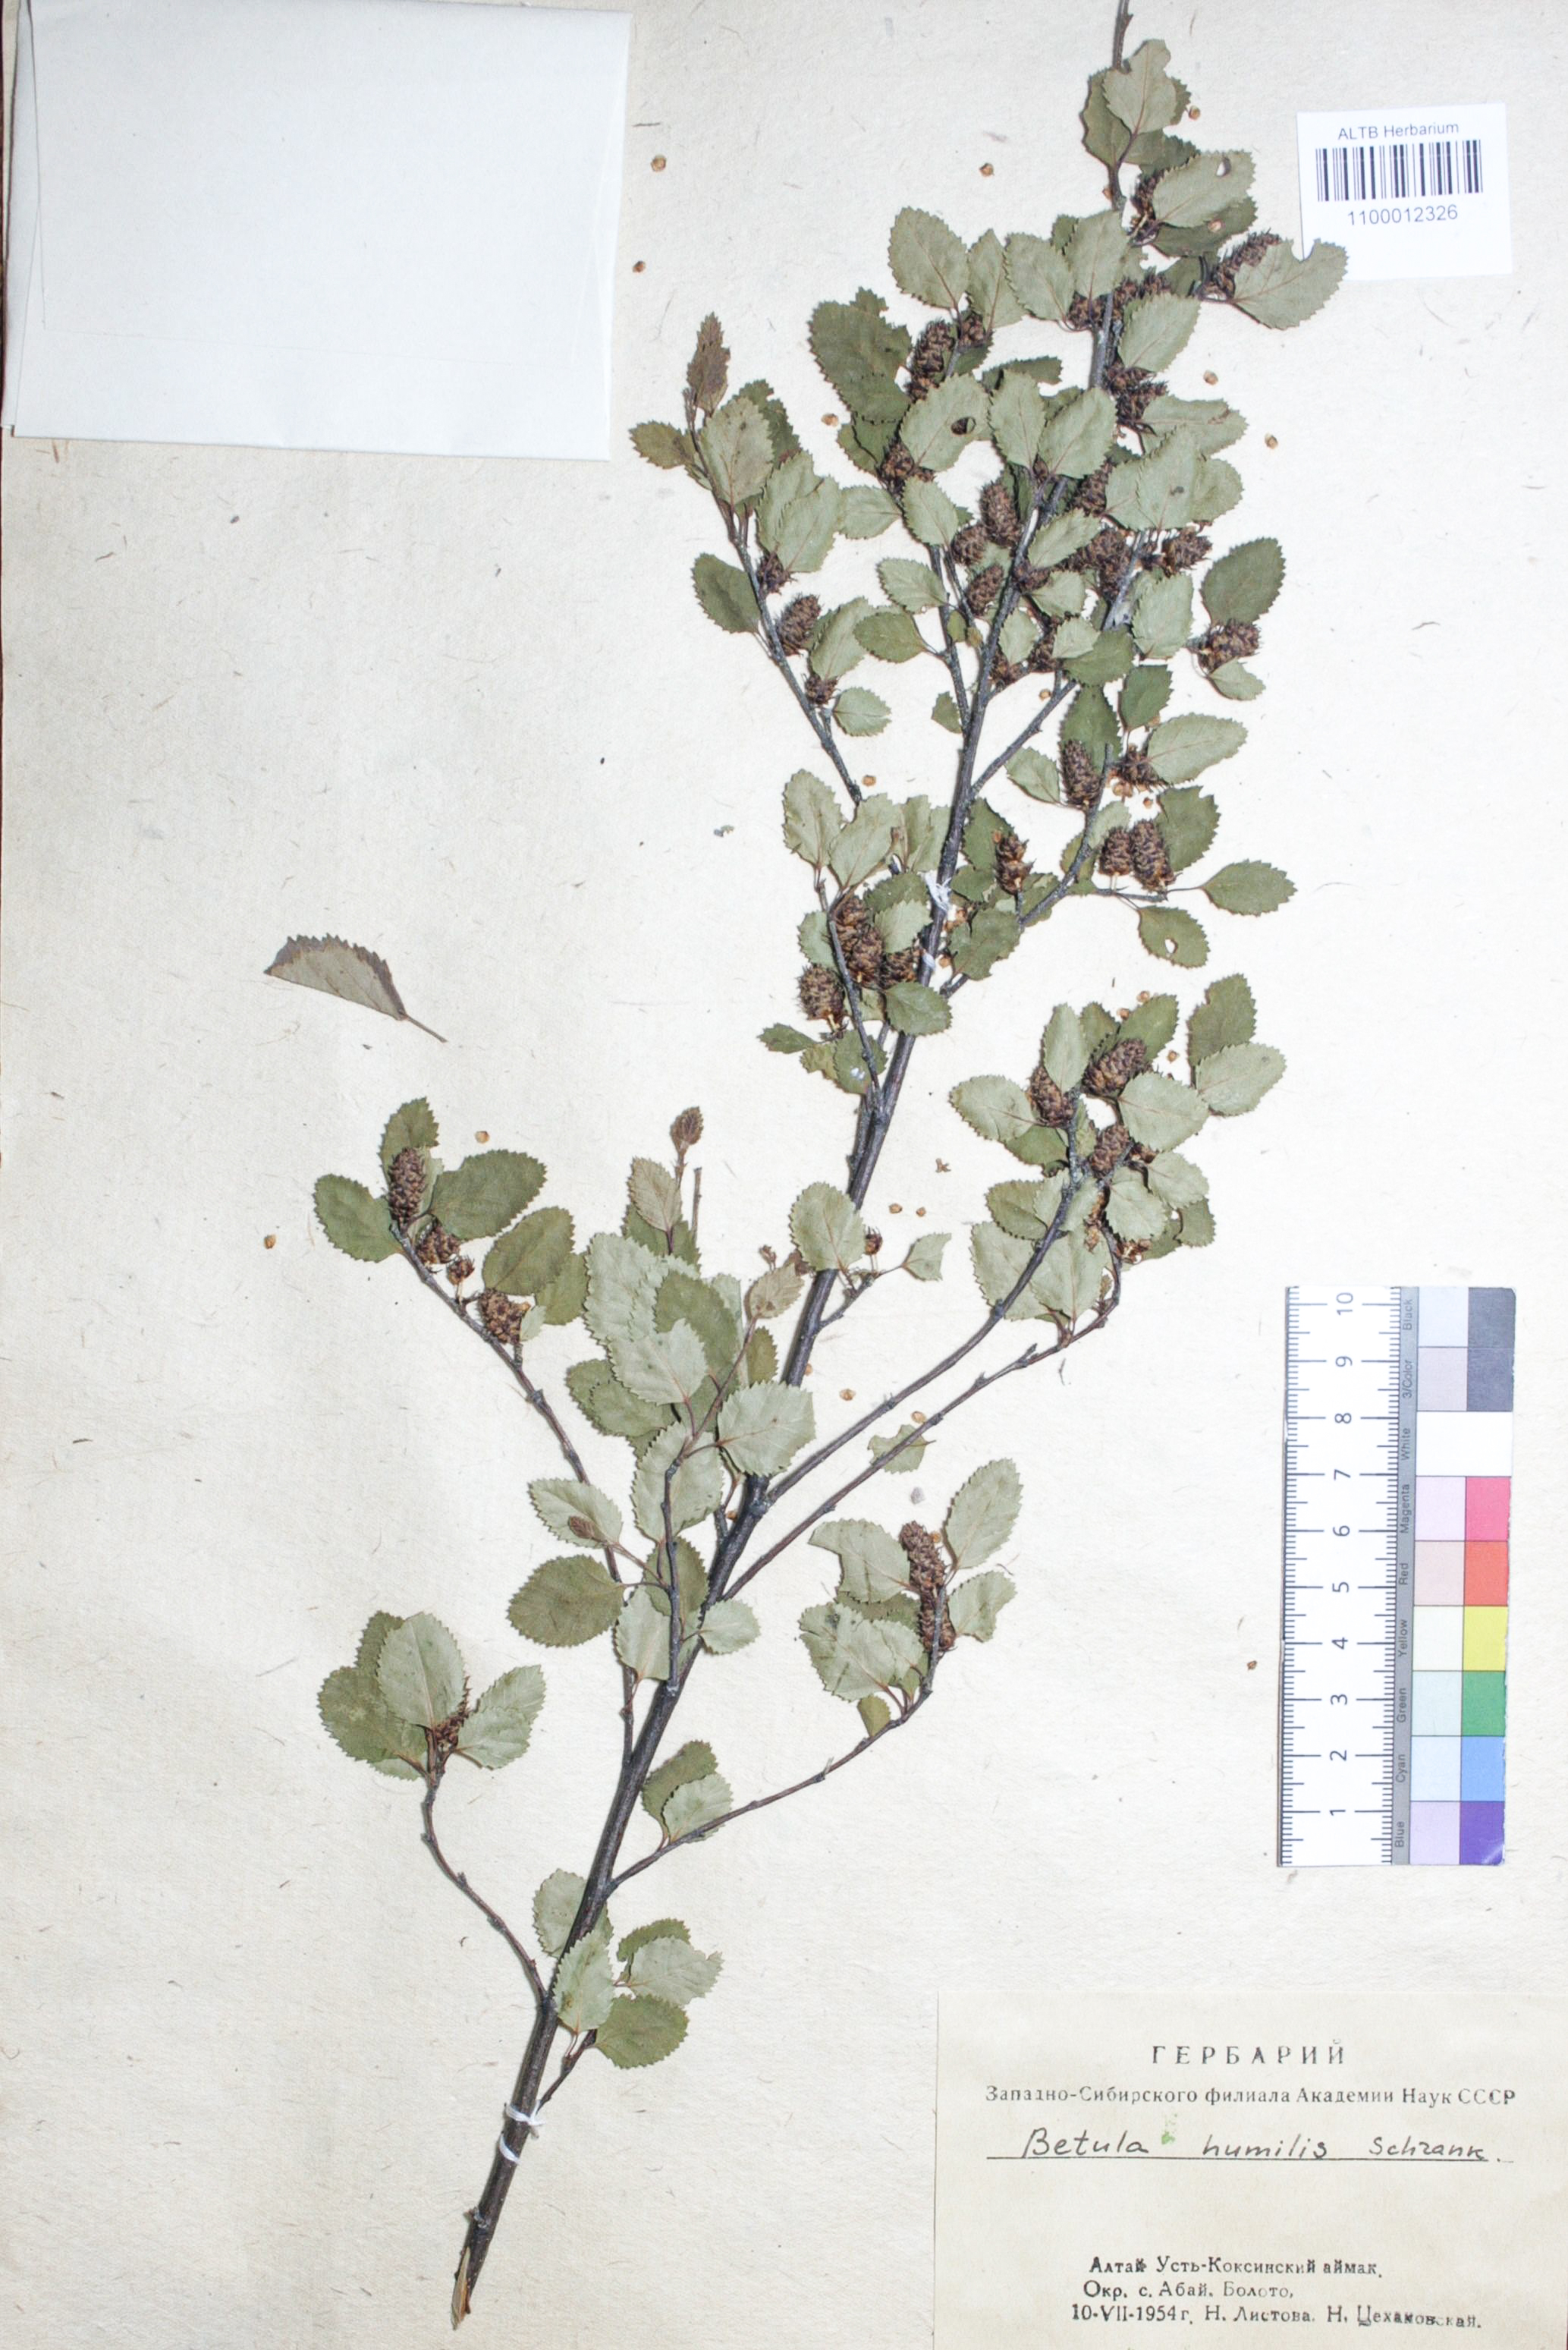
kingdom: Plantae
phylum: Tracheophyta
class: Magnoliopsida
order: Fagales
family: Betulaceae
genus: Betula
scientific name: Betula humilis
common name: Shrubby birch
